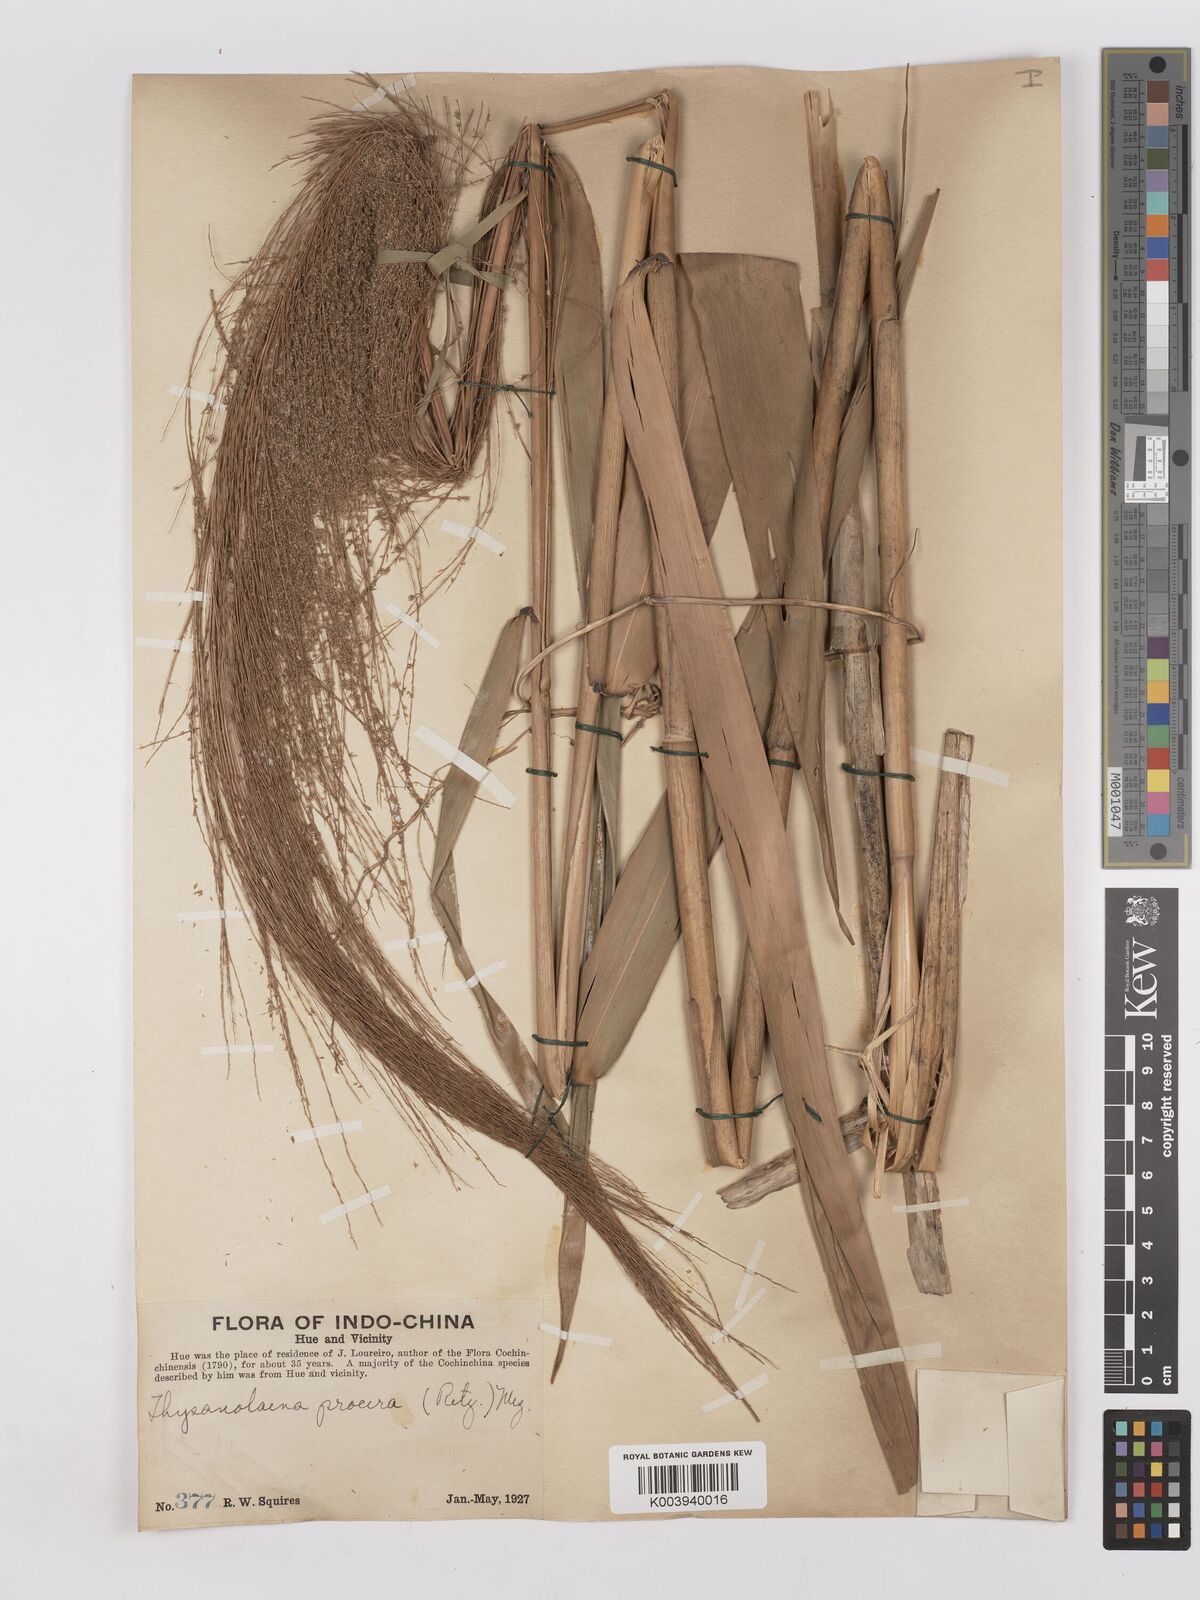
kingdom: Plantae
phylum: Tracheophyta
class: Liliopsida
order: Poales
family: Poaceae
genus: Thysanolaena
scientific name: Thysanolaena latifolia
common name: Tiger grass
